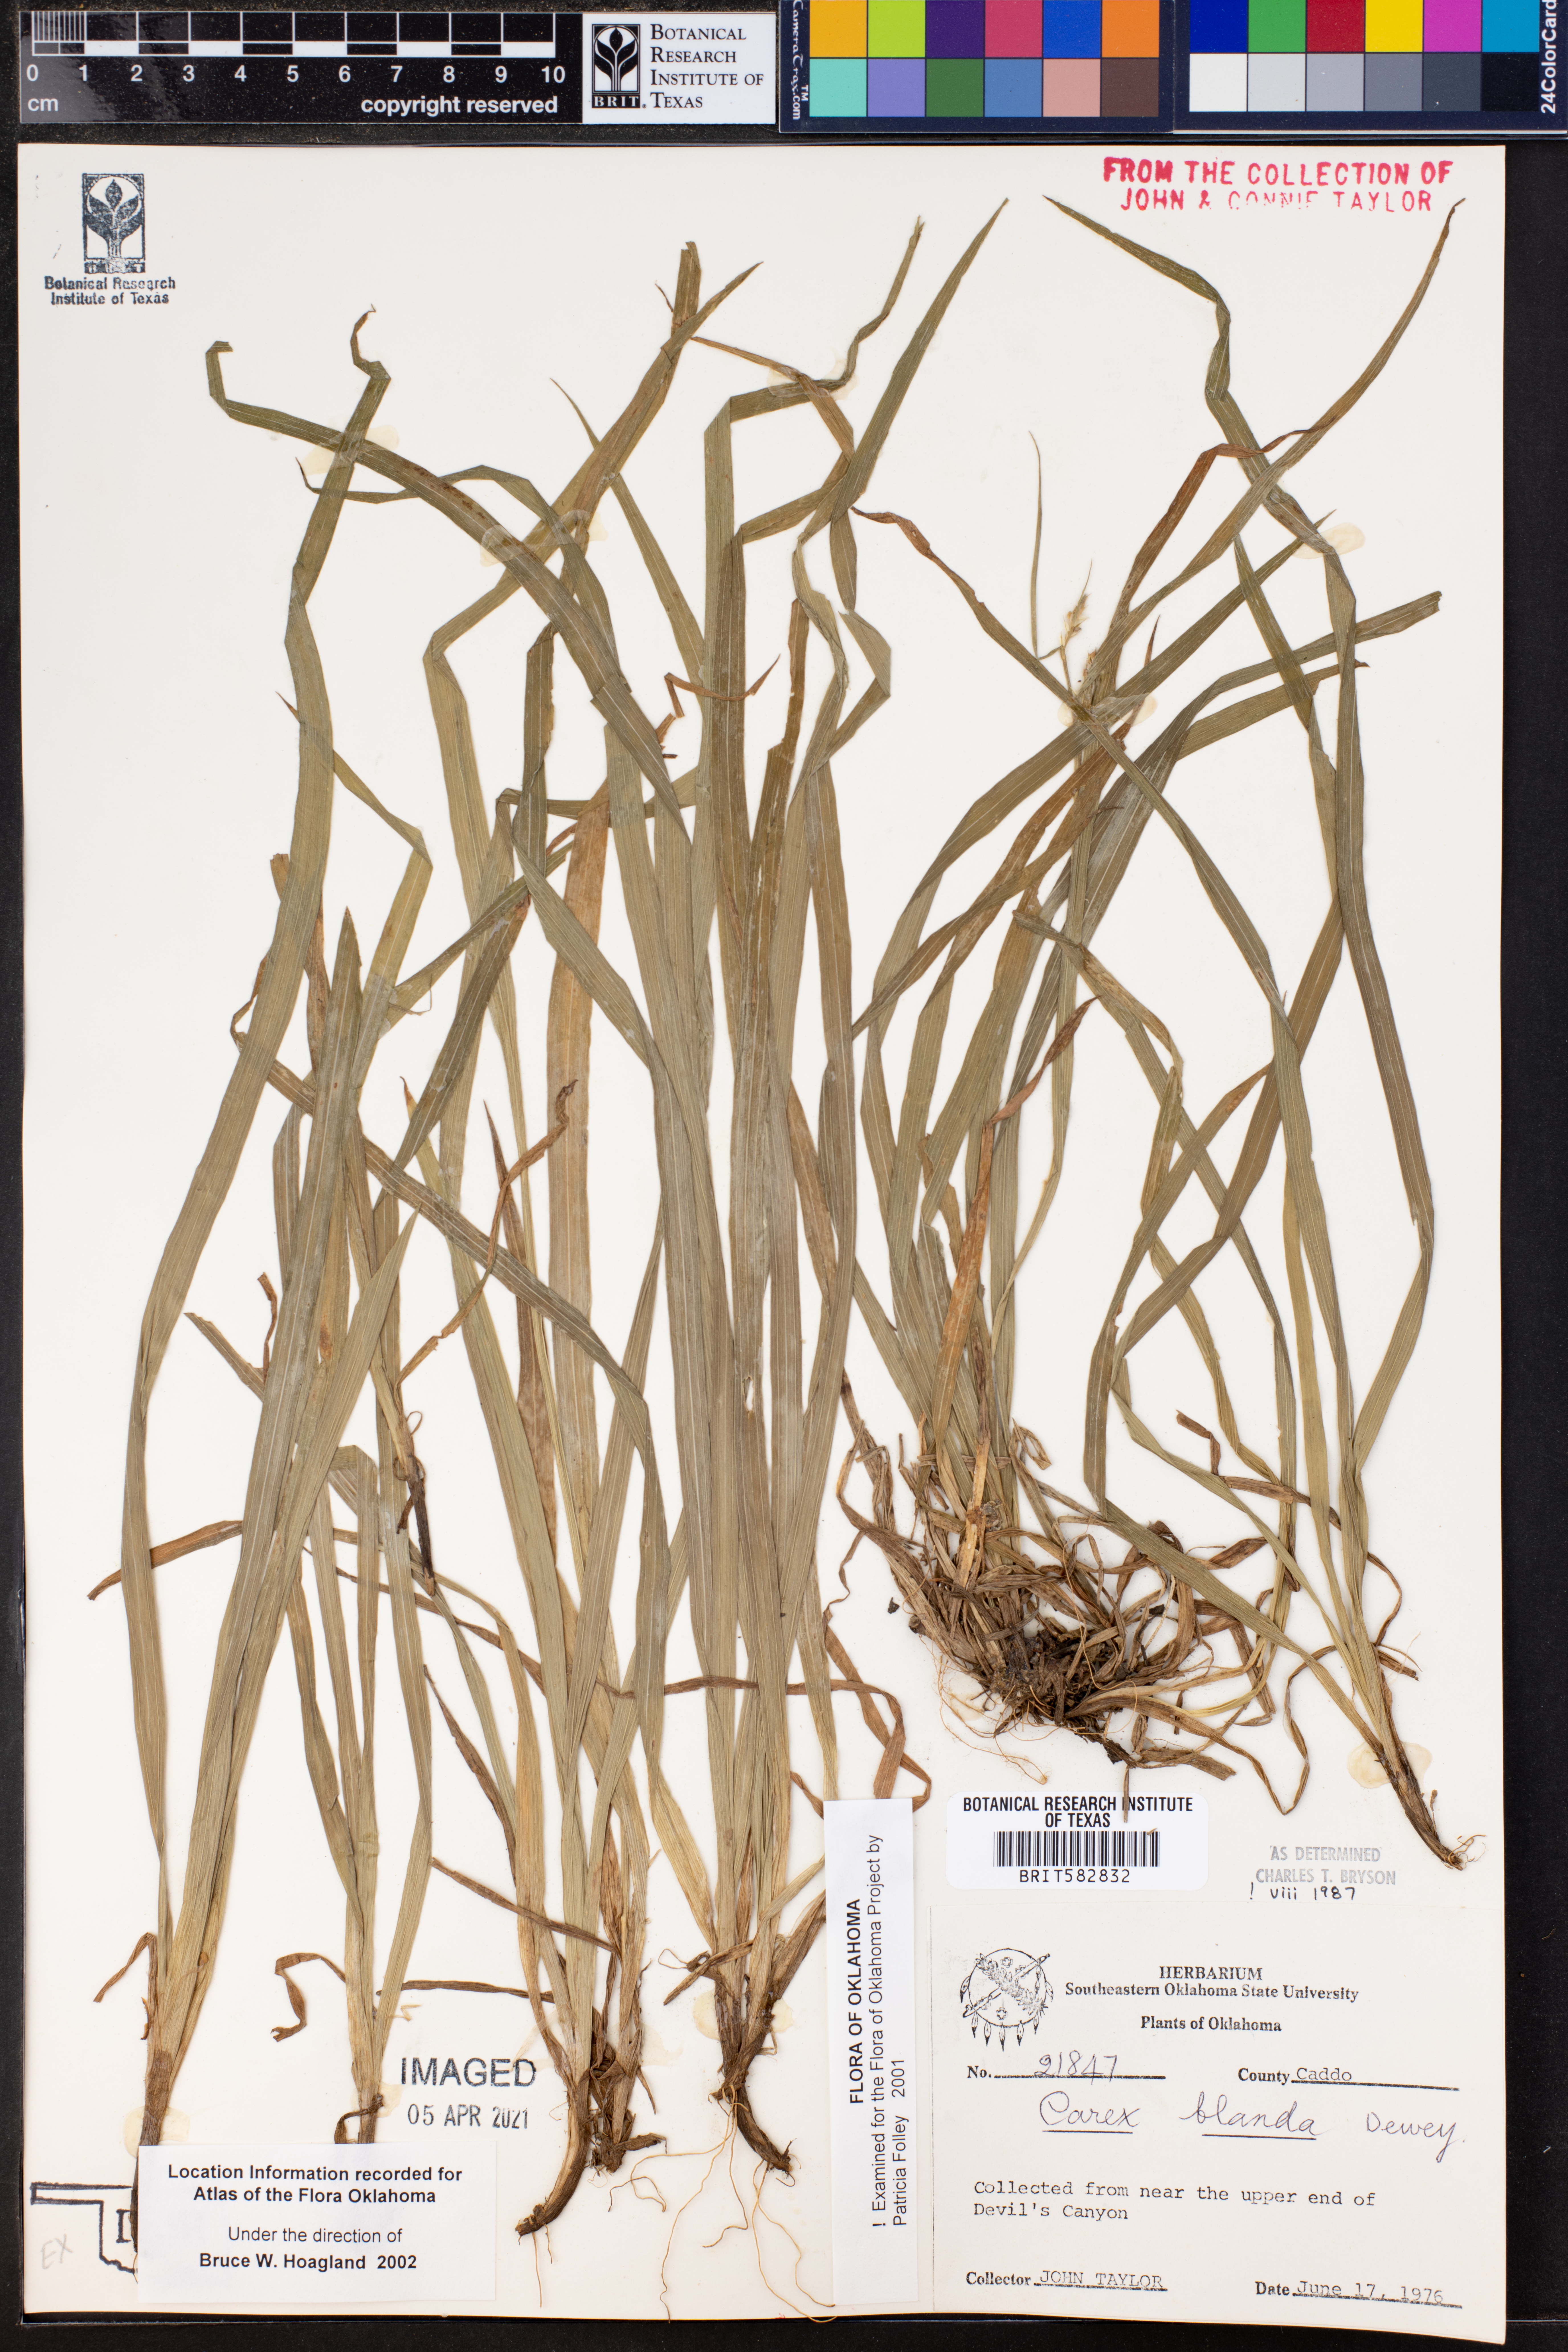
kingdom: Plantae
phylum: Tracheophyta
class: Liliopsida
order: Poales
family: Cyperaceae
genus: Carex
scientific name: Carex blanda
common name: Bland sedge
